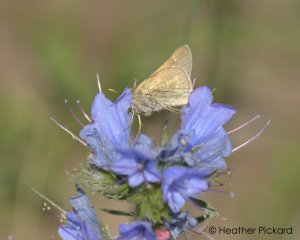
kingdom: Animalia
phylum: Arthropoda
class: Insecta
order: Lepidoptera
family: Hesperiidae
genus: Polites
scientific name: Polites
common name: Crossline Skipper
